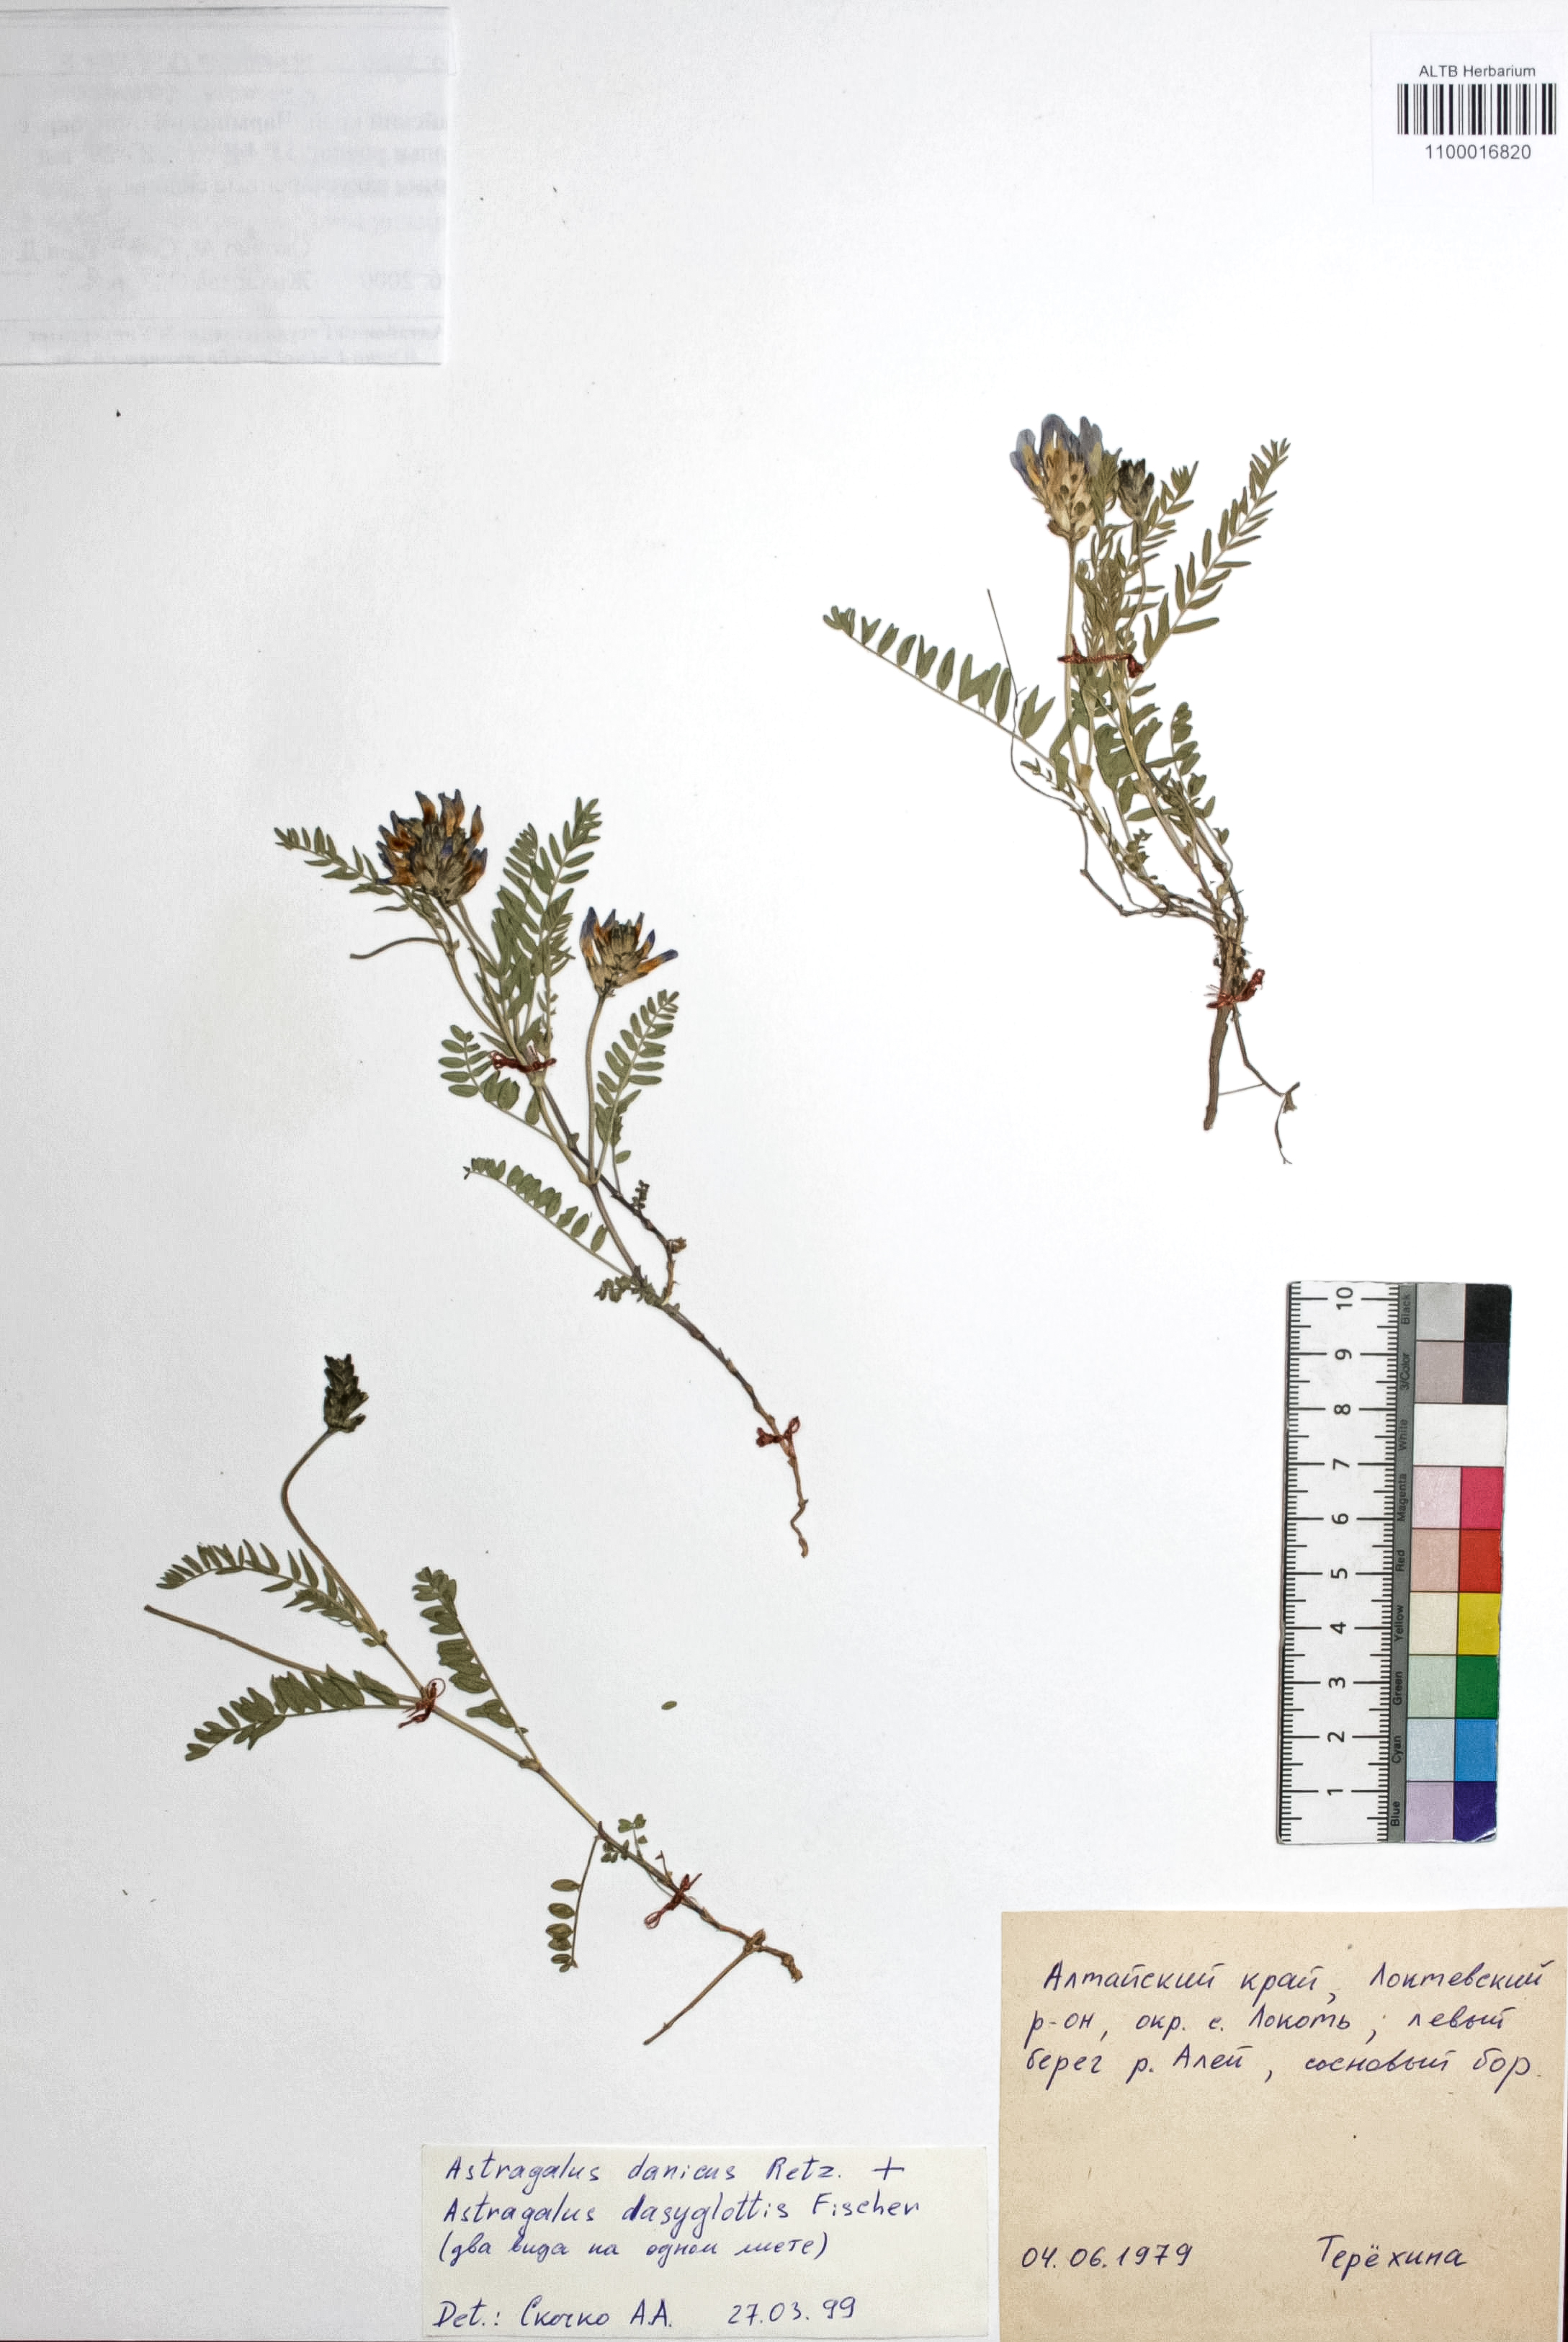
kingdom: Plantae
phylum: Tracheophyta
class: Magnoliopsida
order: Fabales
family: Fabaceae
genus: Astragalus
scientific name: Astragalus danicus
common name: Purple milk-vetch
